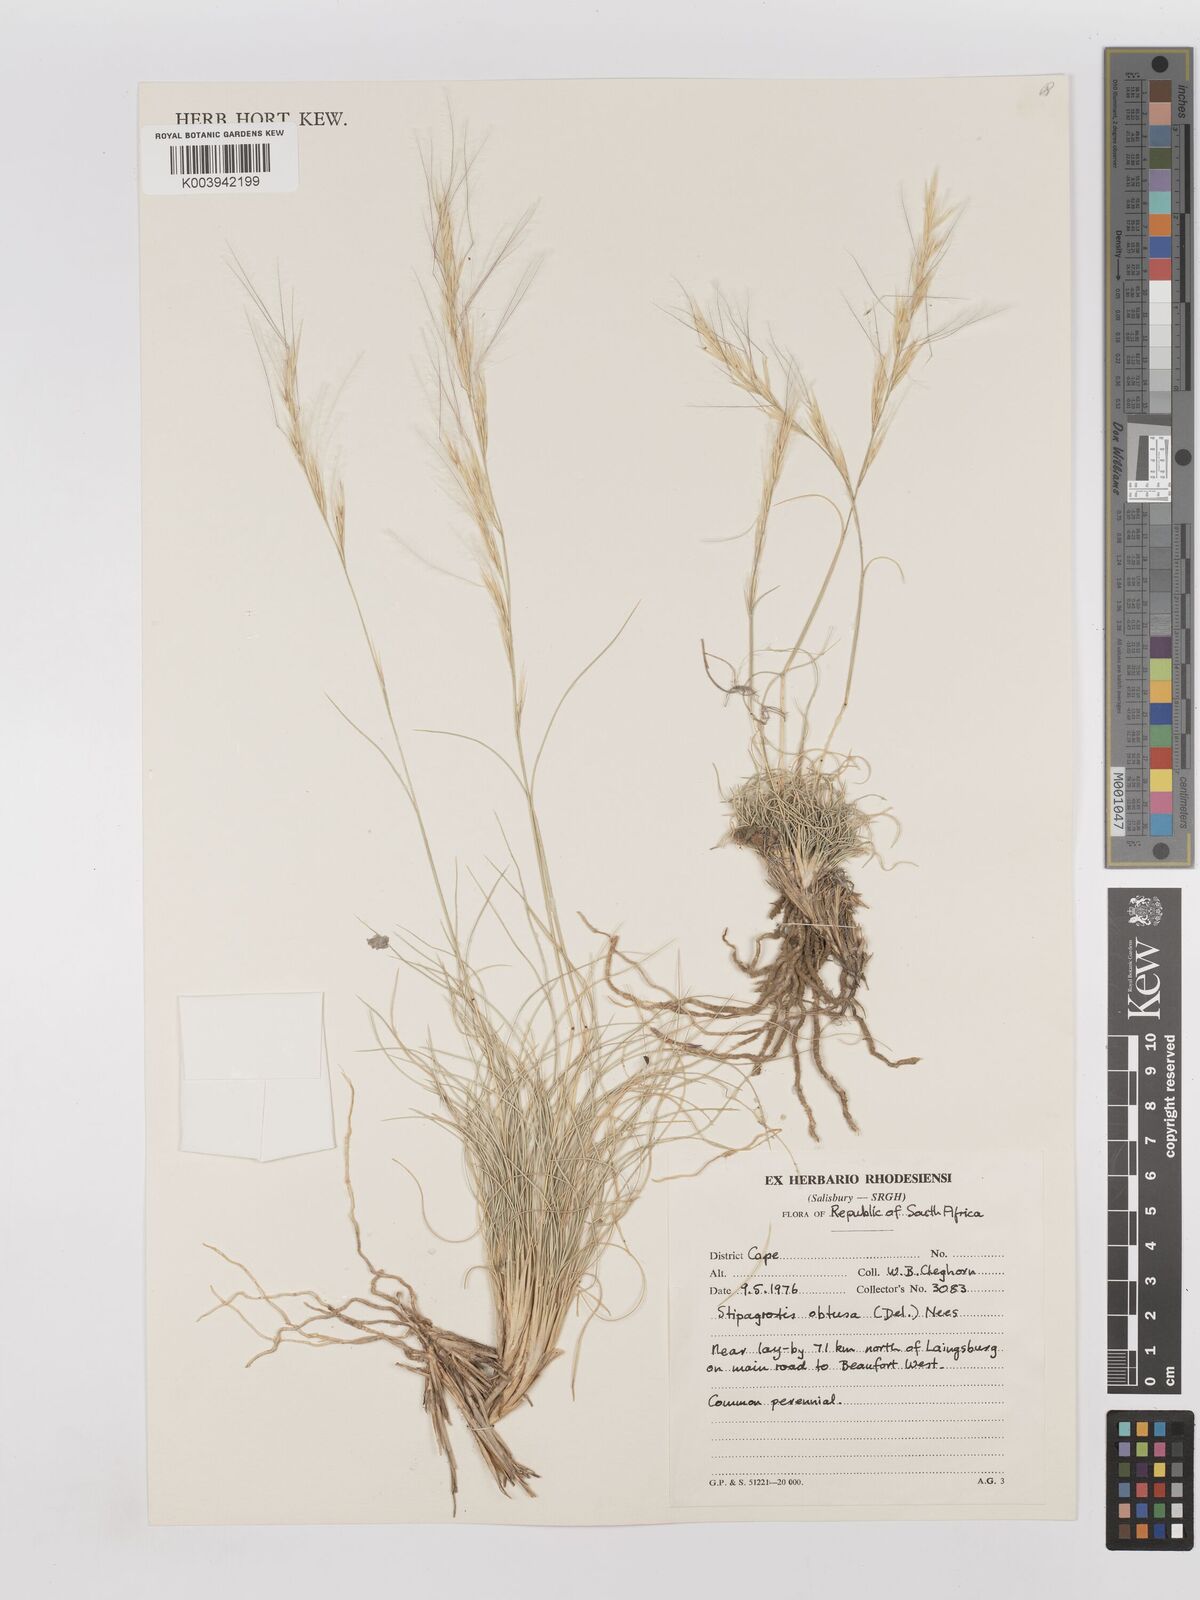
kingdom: Plantae
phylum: Tracheophyta
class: Liliopsida
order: Poales
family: Poaceae
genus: Stipagrostis
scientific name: Stipagrostis obtusa
